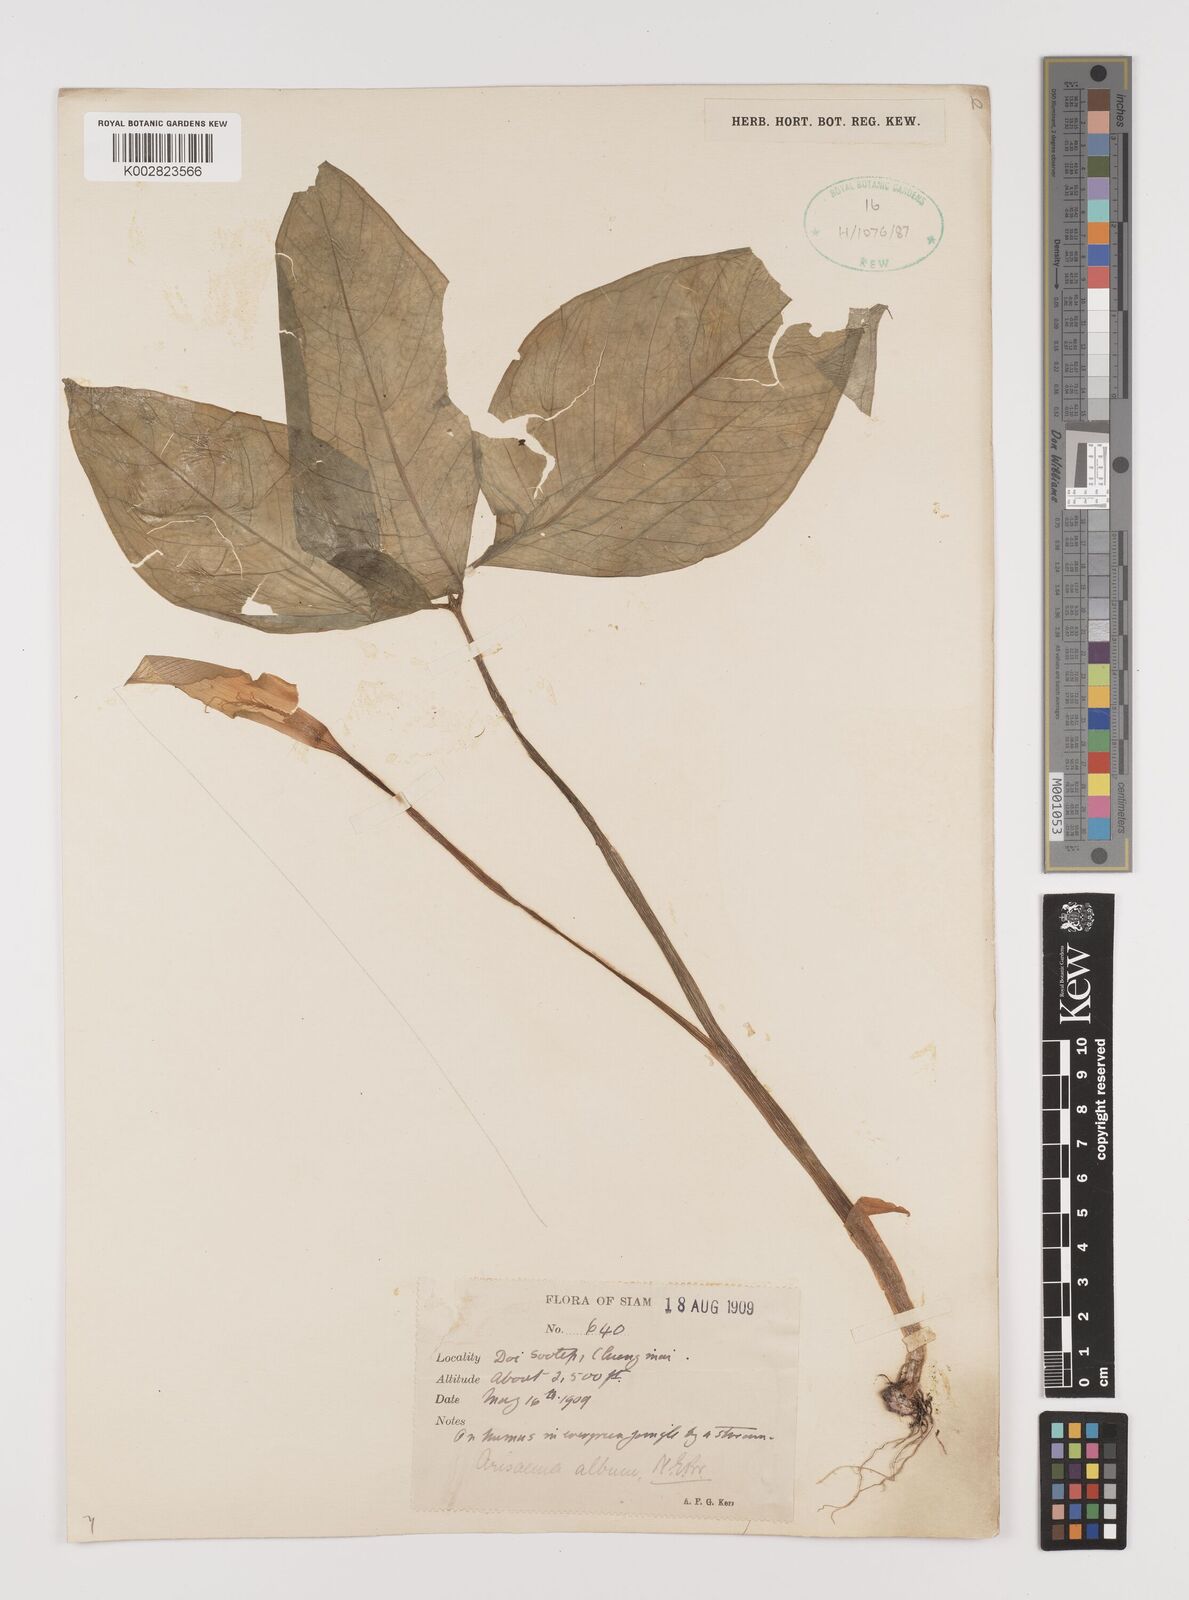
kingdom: Plantae
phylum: Tracheophyta
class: Liliopsida
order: Alismatales
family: Araceae
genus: Arisaema
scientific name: Arisaema album
